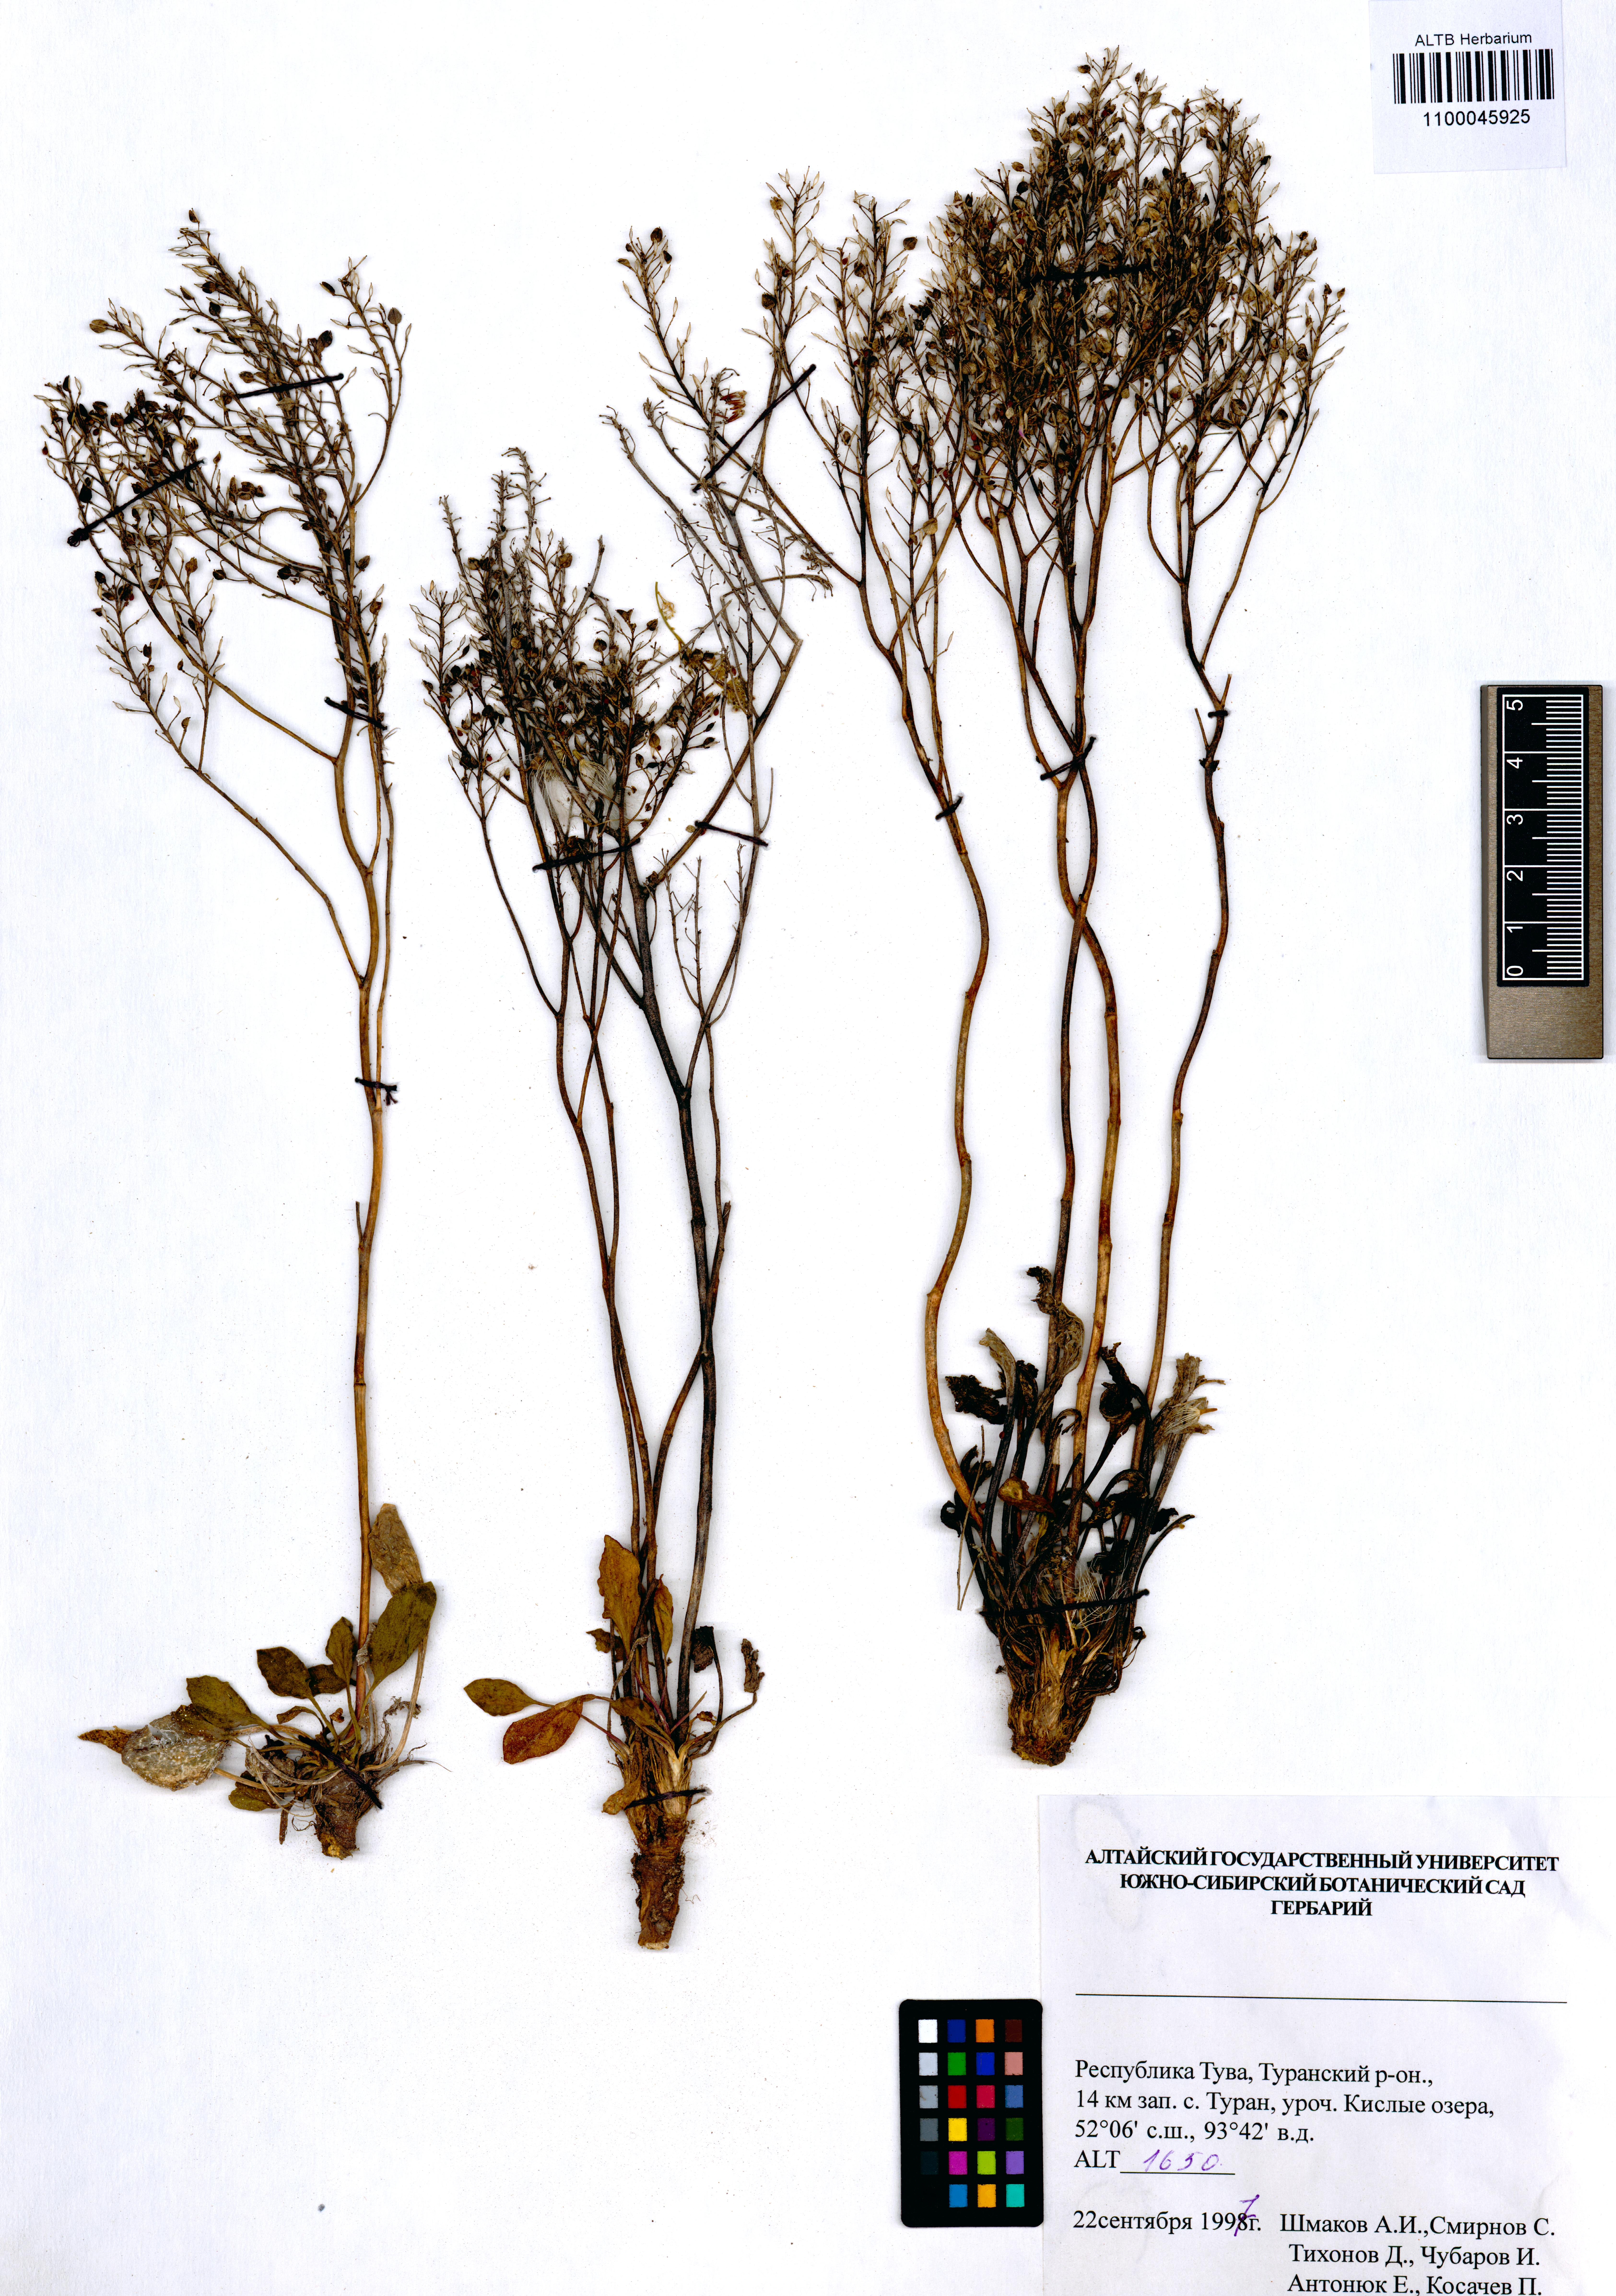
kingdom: Plantae
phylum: Tracheophyta
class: Magnoliopsida
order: Brassicales
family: Brassicaceae
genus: Lepidium
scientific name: Lepidium cartilagineum
